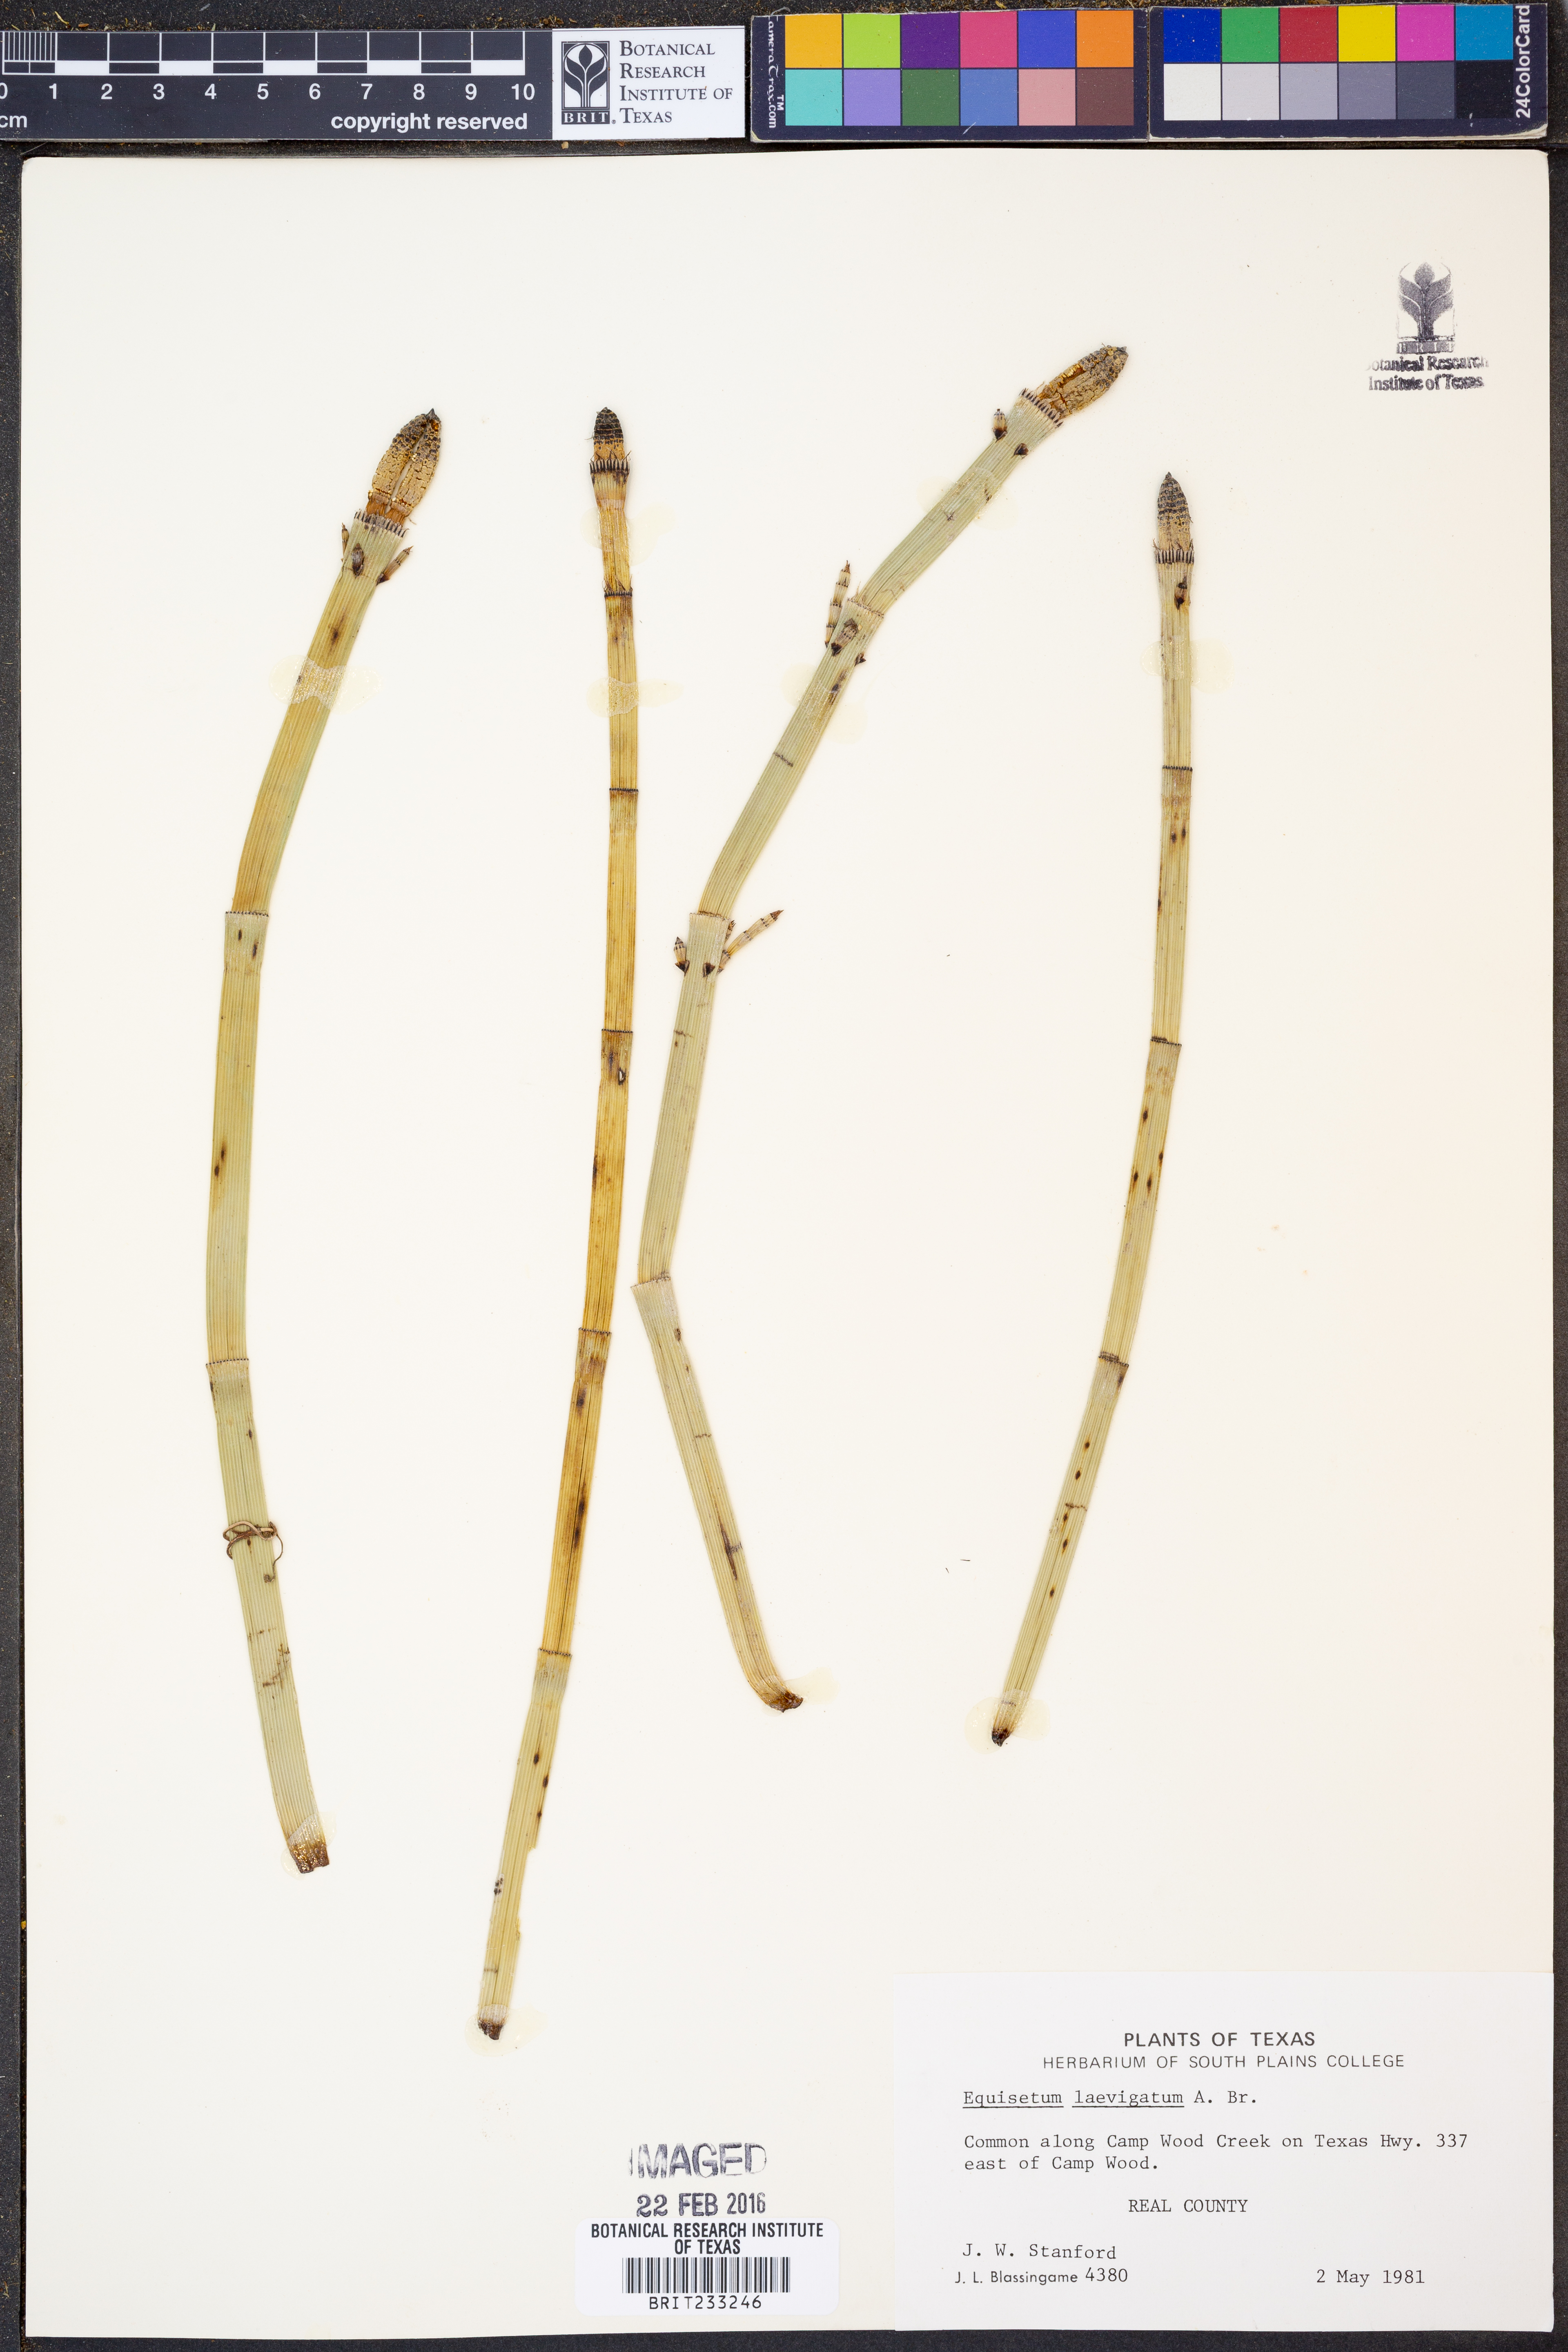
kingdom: Plantae
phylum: Tracheophyta
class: Polypodiopsida
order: Equisetales
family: Equisetaceae
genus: Equisetum
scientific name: Equisetum laevigatum
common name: Smooth scouring-rush
